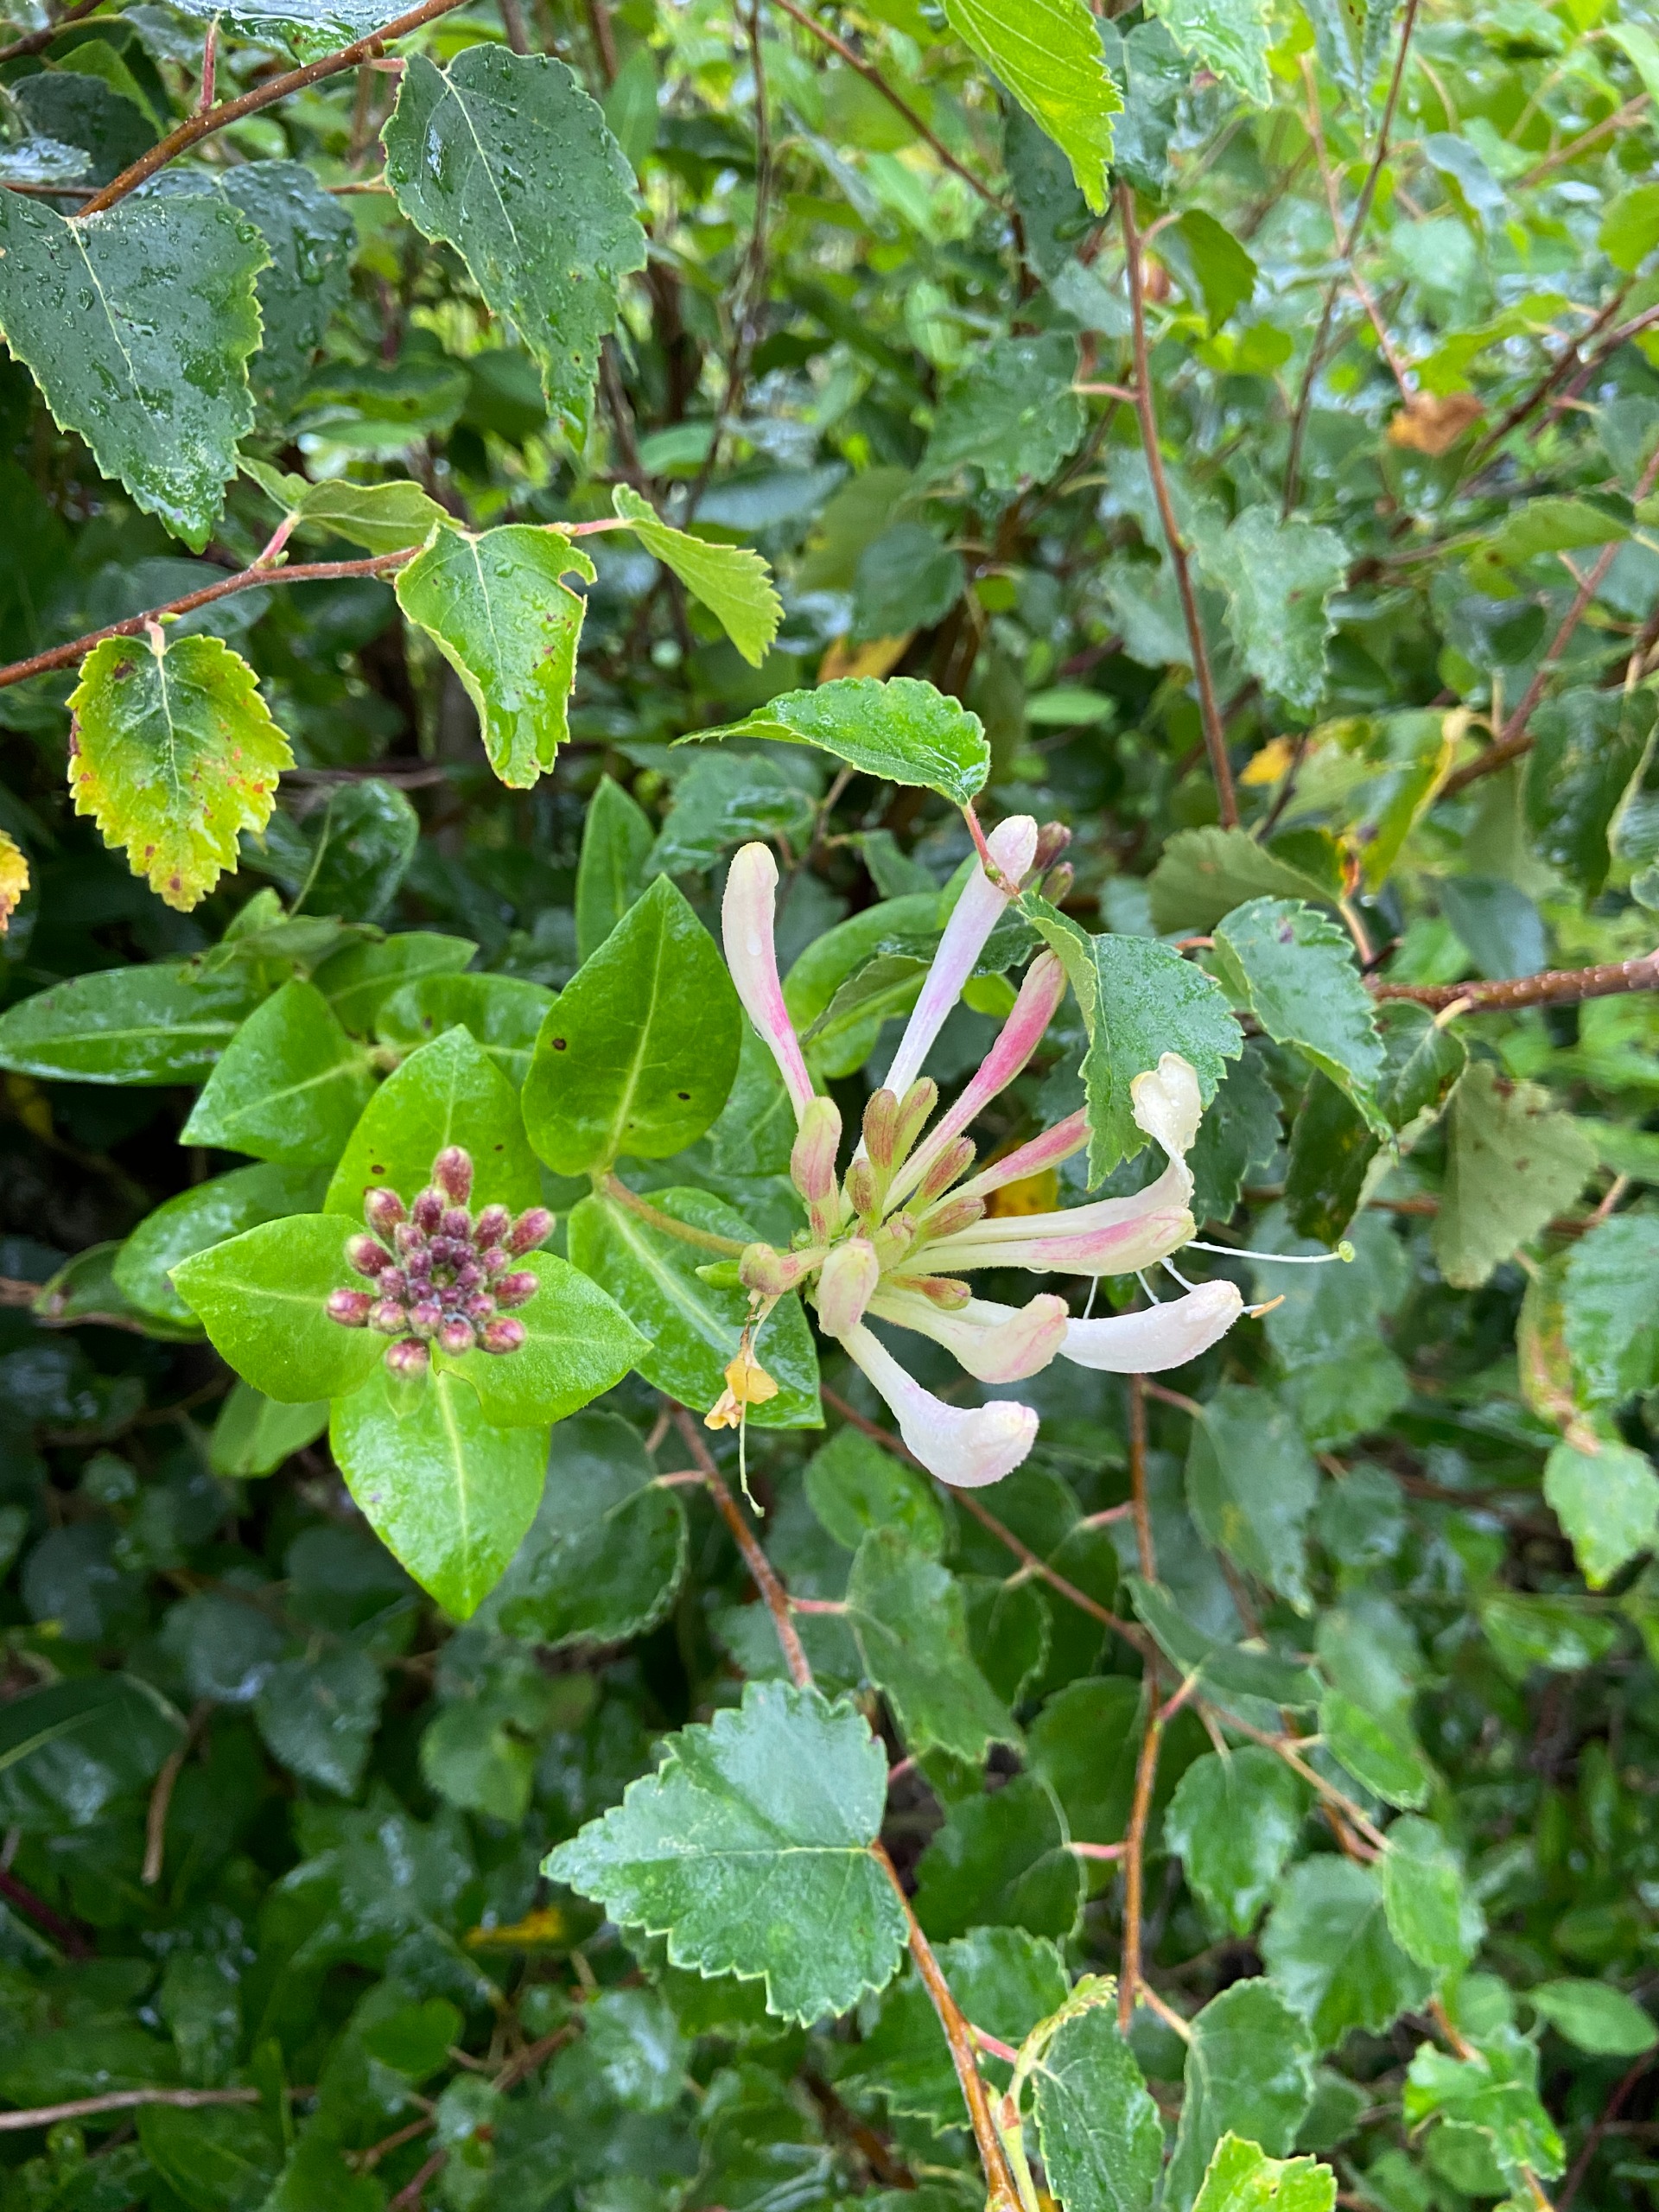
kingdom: Plantae
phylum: Tracheophyta
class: Magnoliopsida
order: Dipsacales
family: Caprifoliaceae
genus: Lonicera
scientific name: Lonicera periclymenum
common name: Almindelig gedeblad
